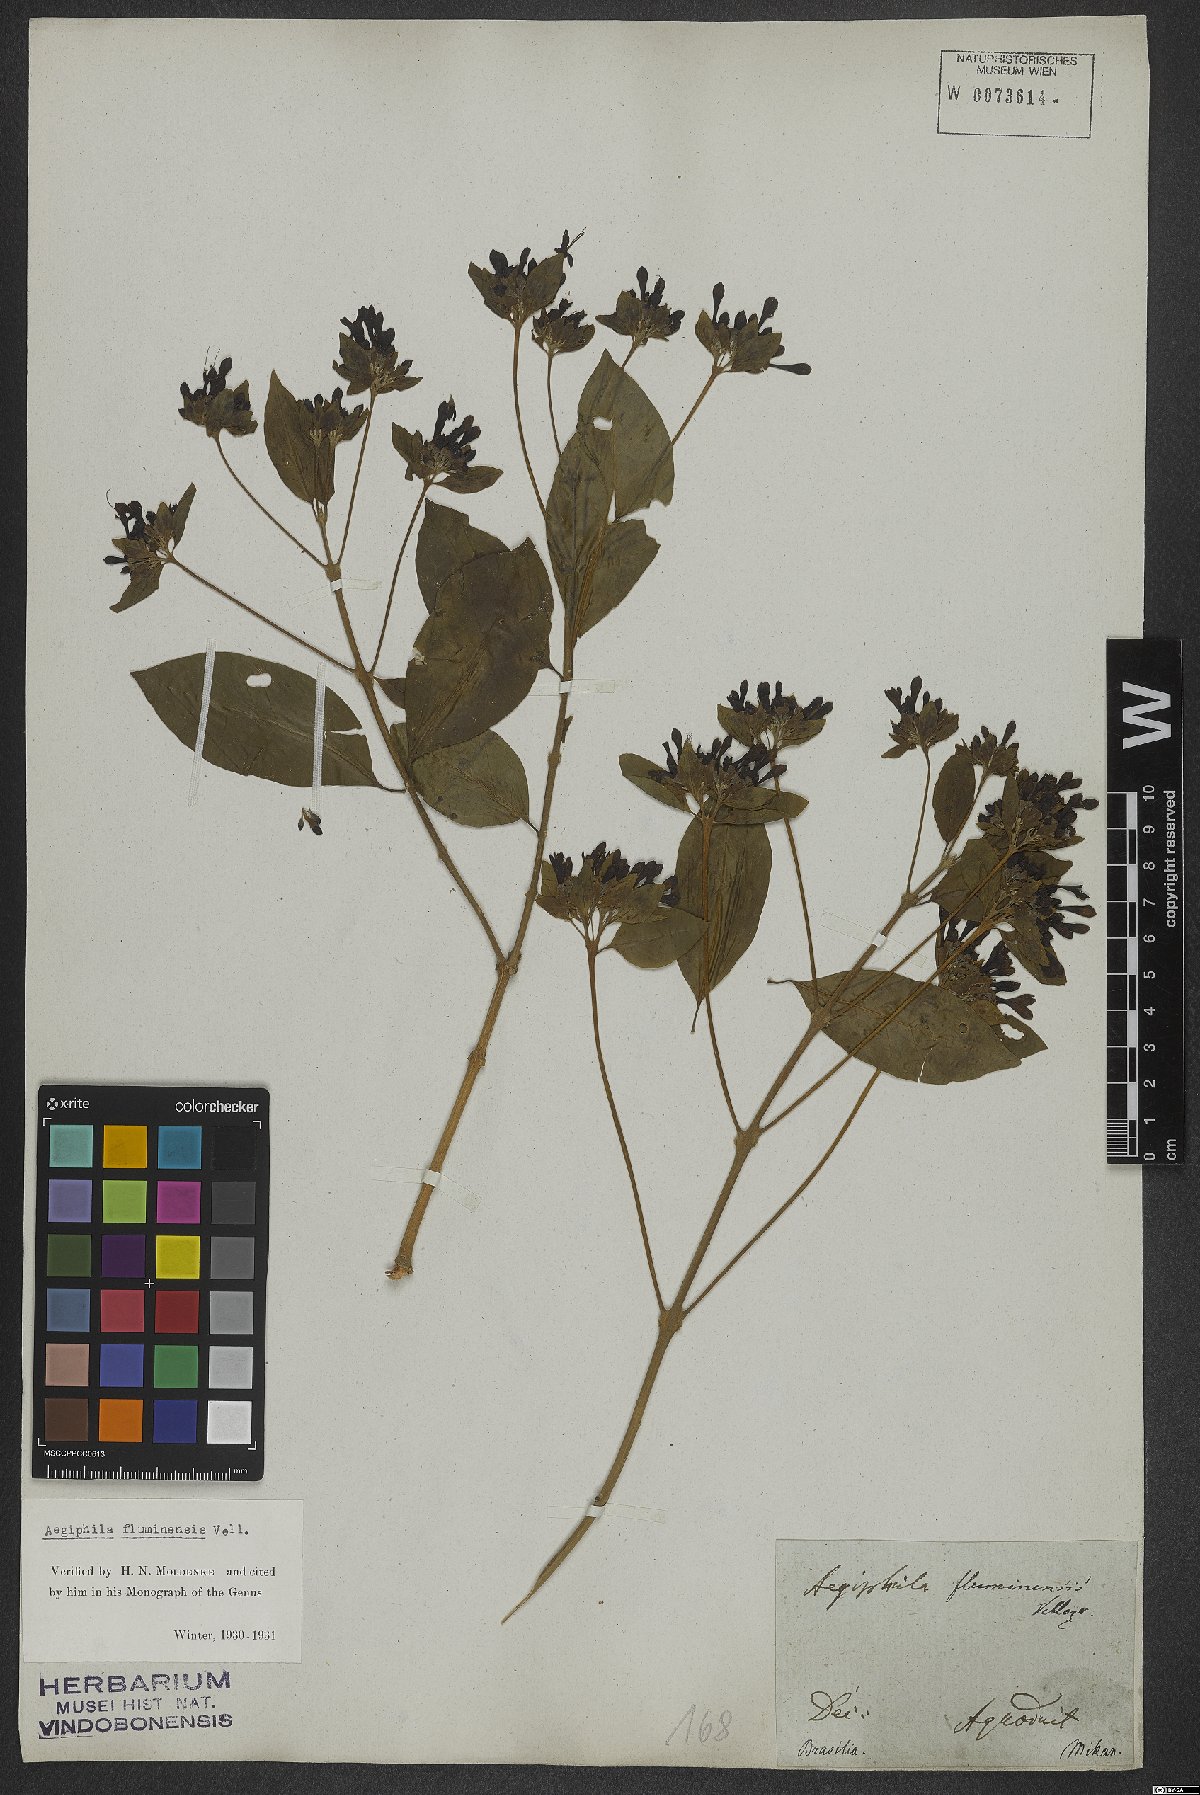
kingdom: Plantae
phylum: Tracheophyta
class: Magnoliopsida
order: Lamiales
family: Lamiaceae
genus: Aegiphila
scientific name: Aegiphila fluminensis
